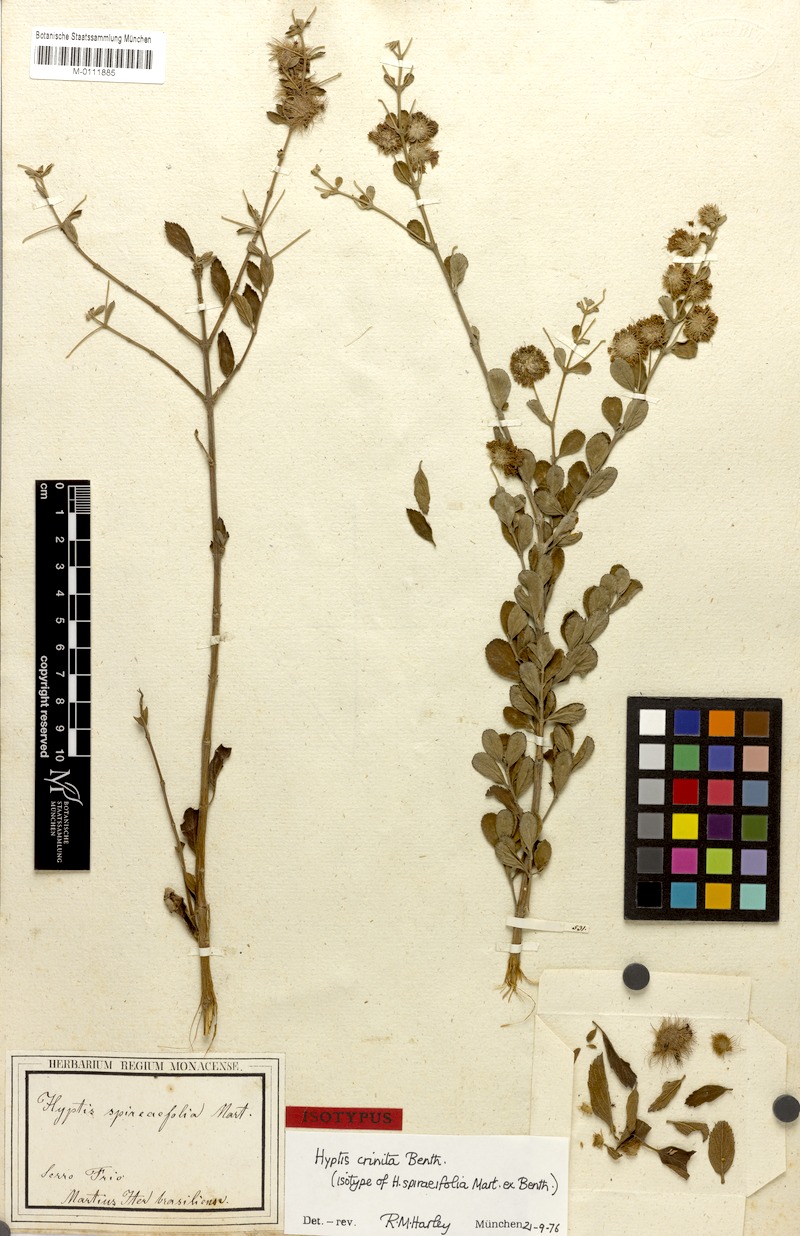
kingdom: Plantae
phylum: Tracheophyta
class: Magnoliopsida
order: Lamiales
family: Lamiaceae
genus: Medusantha
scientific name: Medusantha crinita
